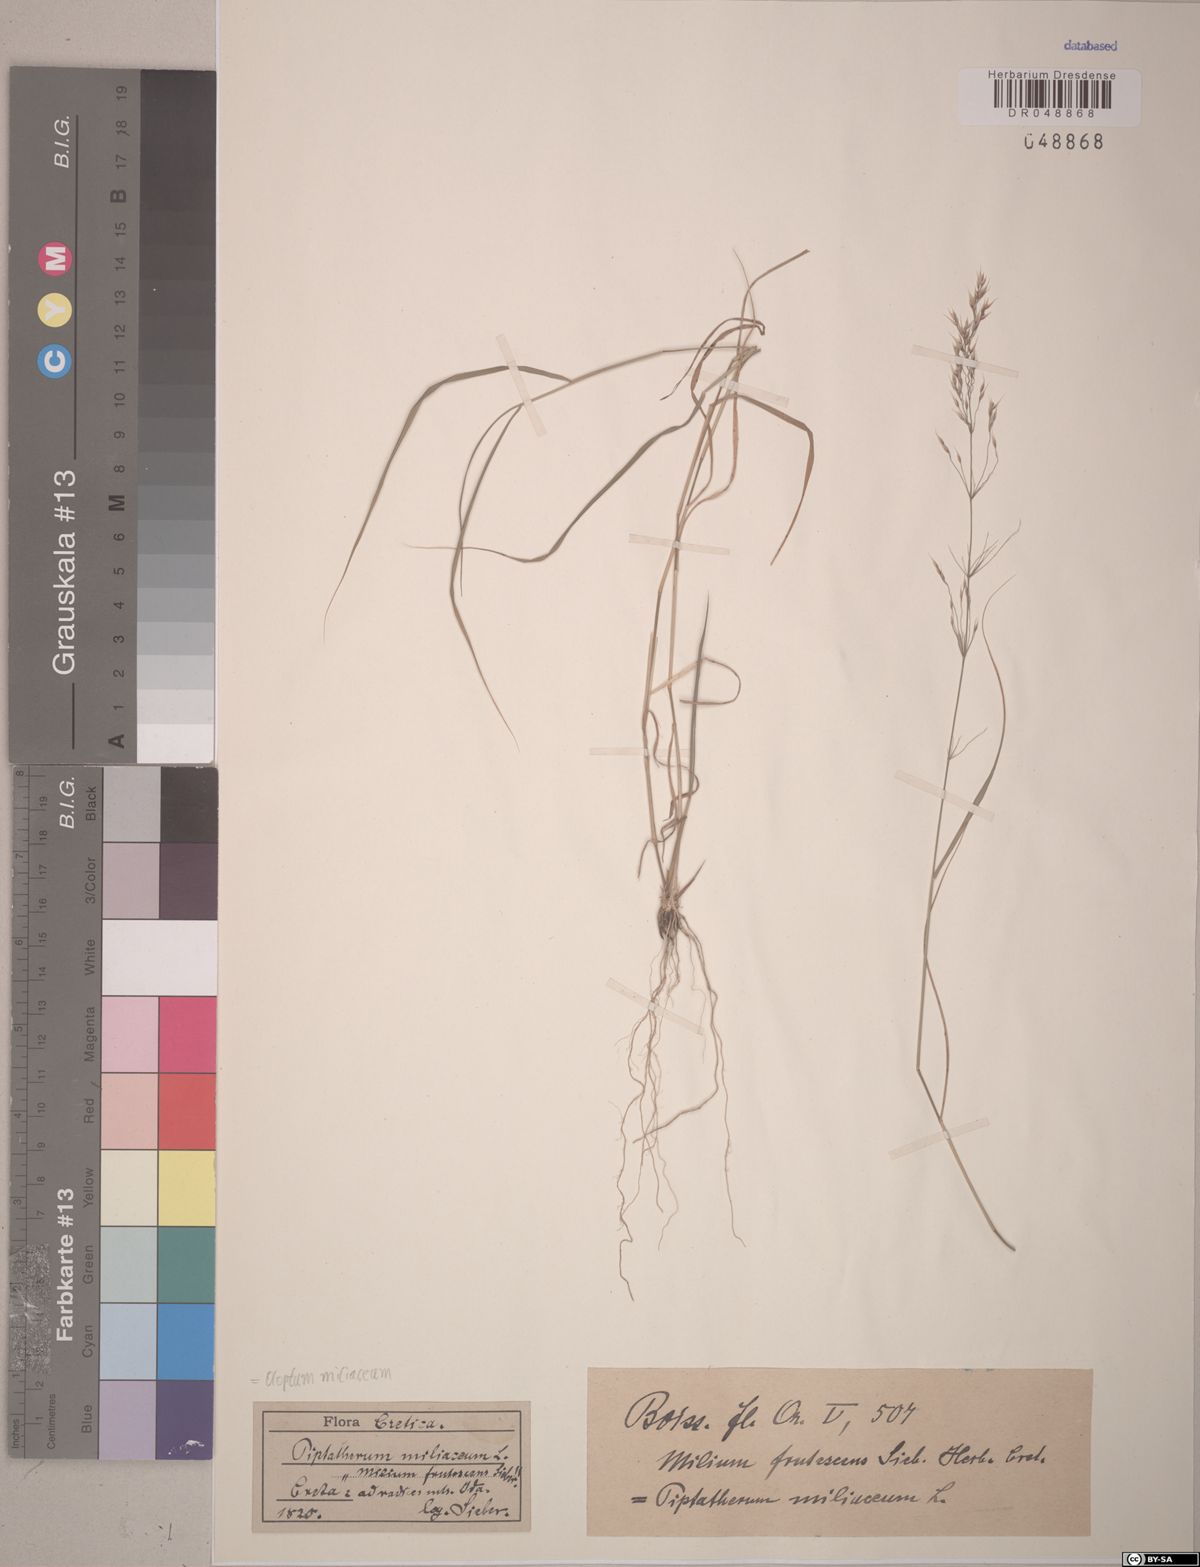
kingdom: Plantae
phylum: Tracheophyta
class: Liliopsida
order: Poales
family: Poaceae
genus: Oloptum
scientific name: Oloptum miliaceum
